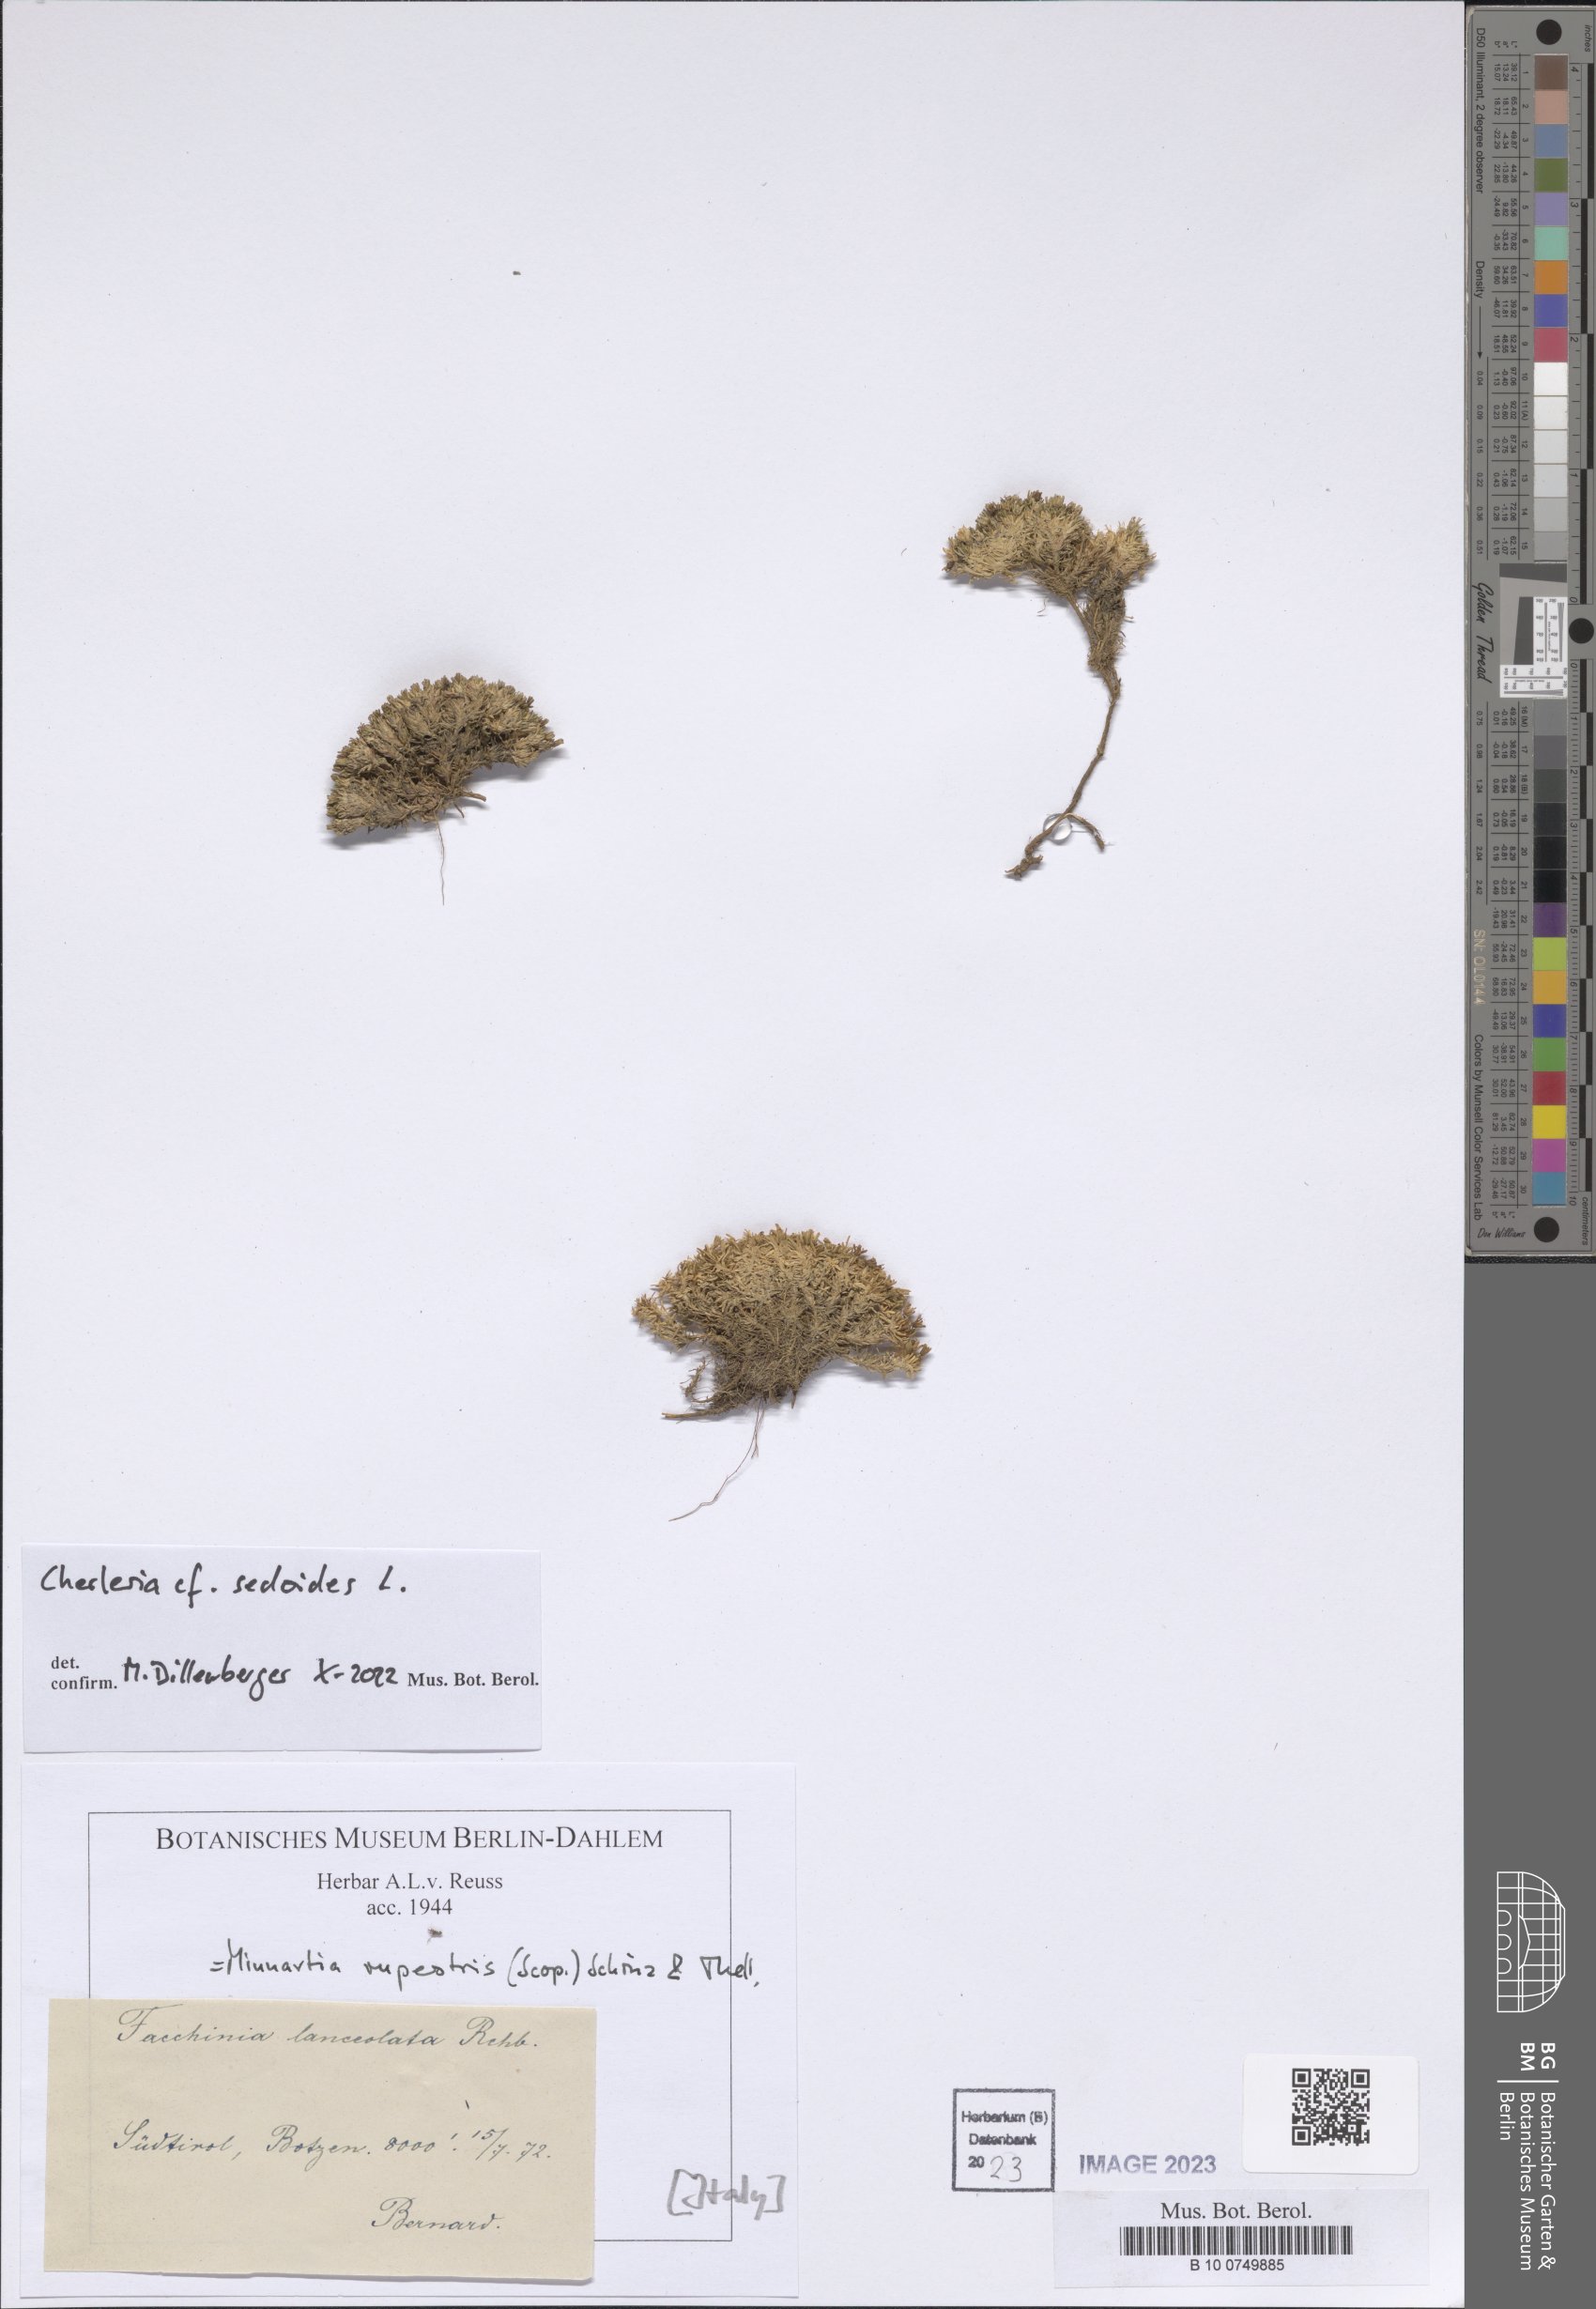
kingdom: Plantae
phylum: Tracheophyta
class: Magnoliopsida
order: Caryophyllales
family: Caryophyllaceae
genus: Cherleria
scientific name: Cherleria sedoides
